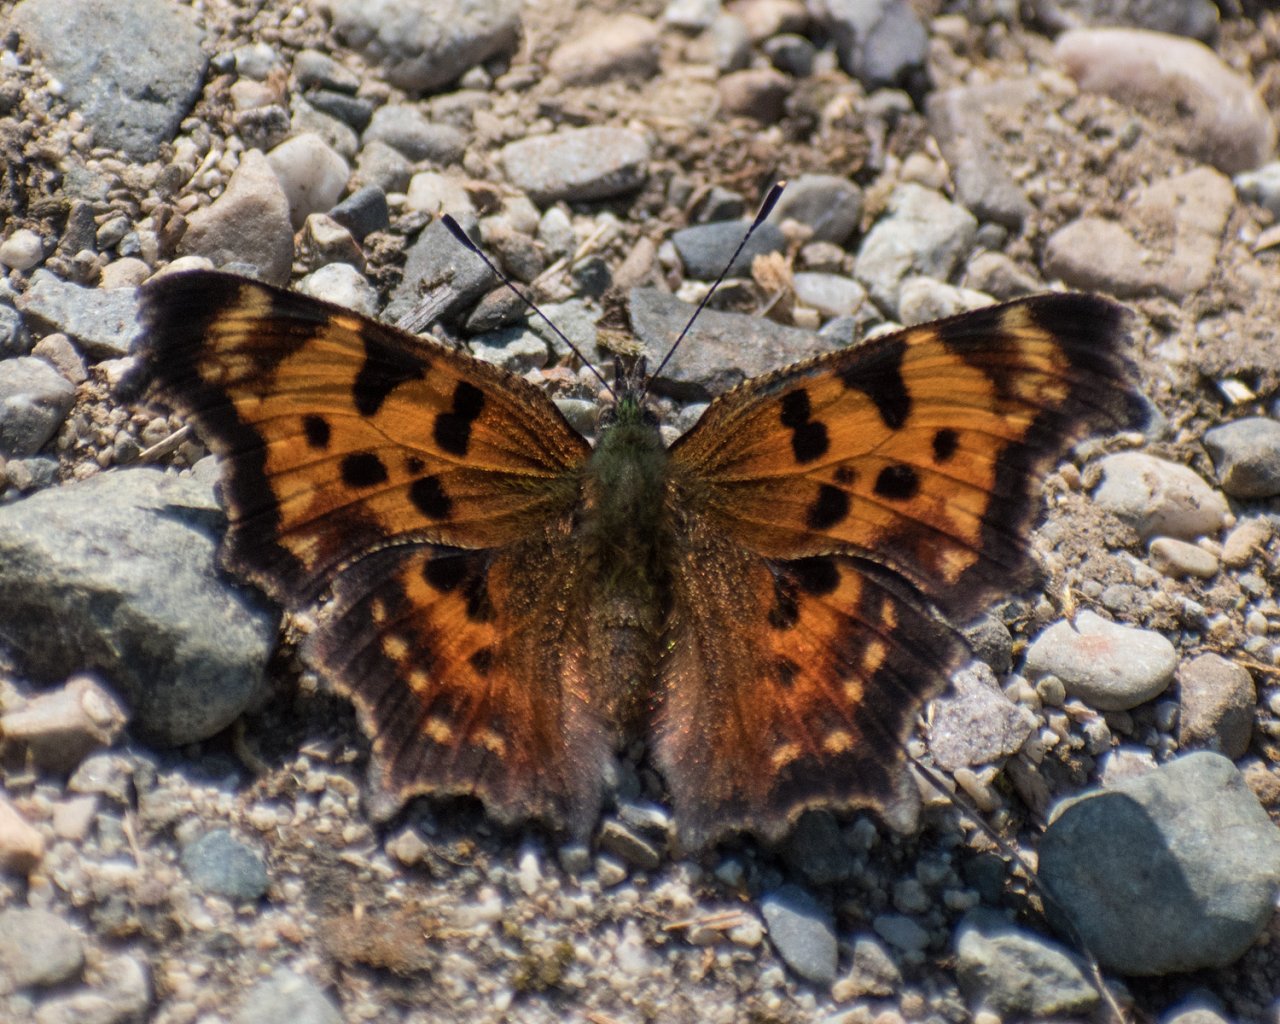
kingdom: Animalia
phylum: Arthropoda
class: Insecta
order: Lepidoptera
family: Nymphalidae
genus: Polygonia
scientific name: Polygonia faunus
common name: Green Comma
